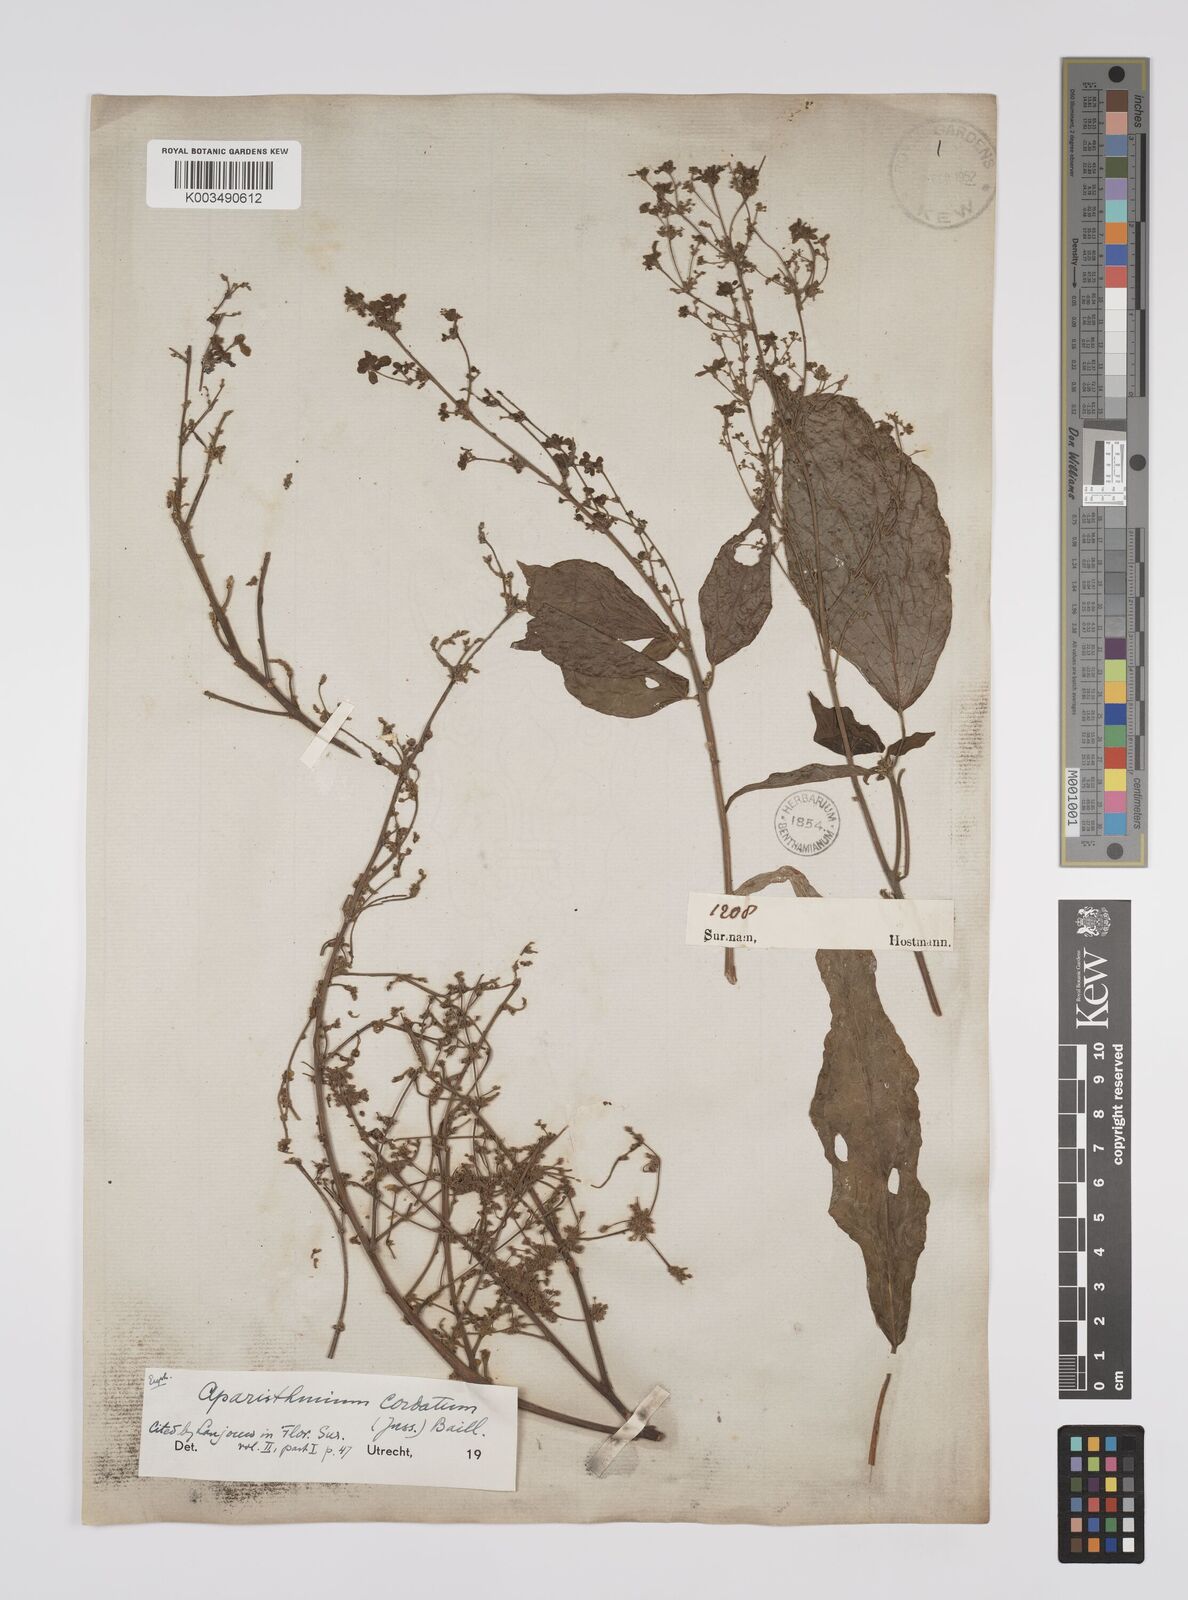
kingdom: Plantae
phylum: Tracheophyta
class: Magnoliopsida
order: Malpighiales
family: Euphorbiaceae
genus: Aparisthmium
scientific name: Aparisthmium cordatum
